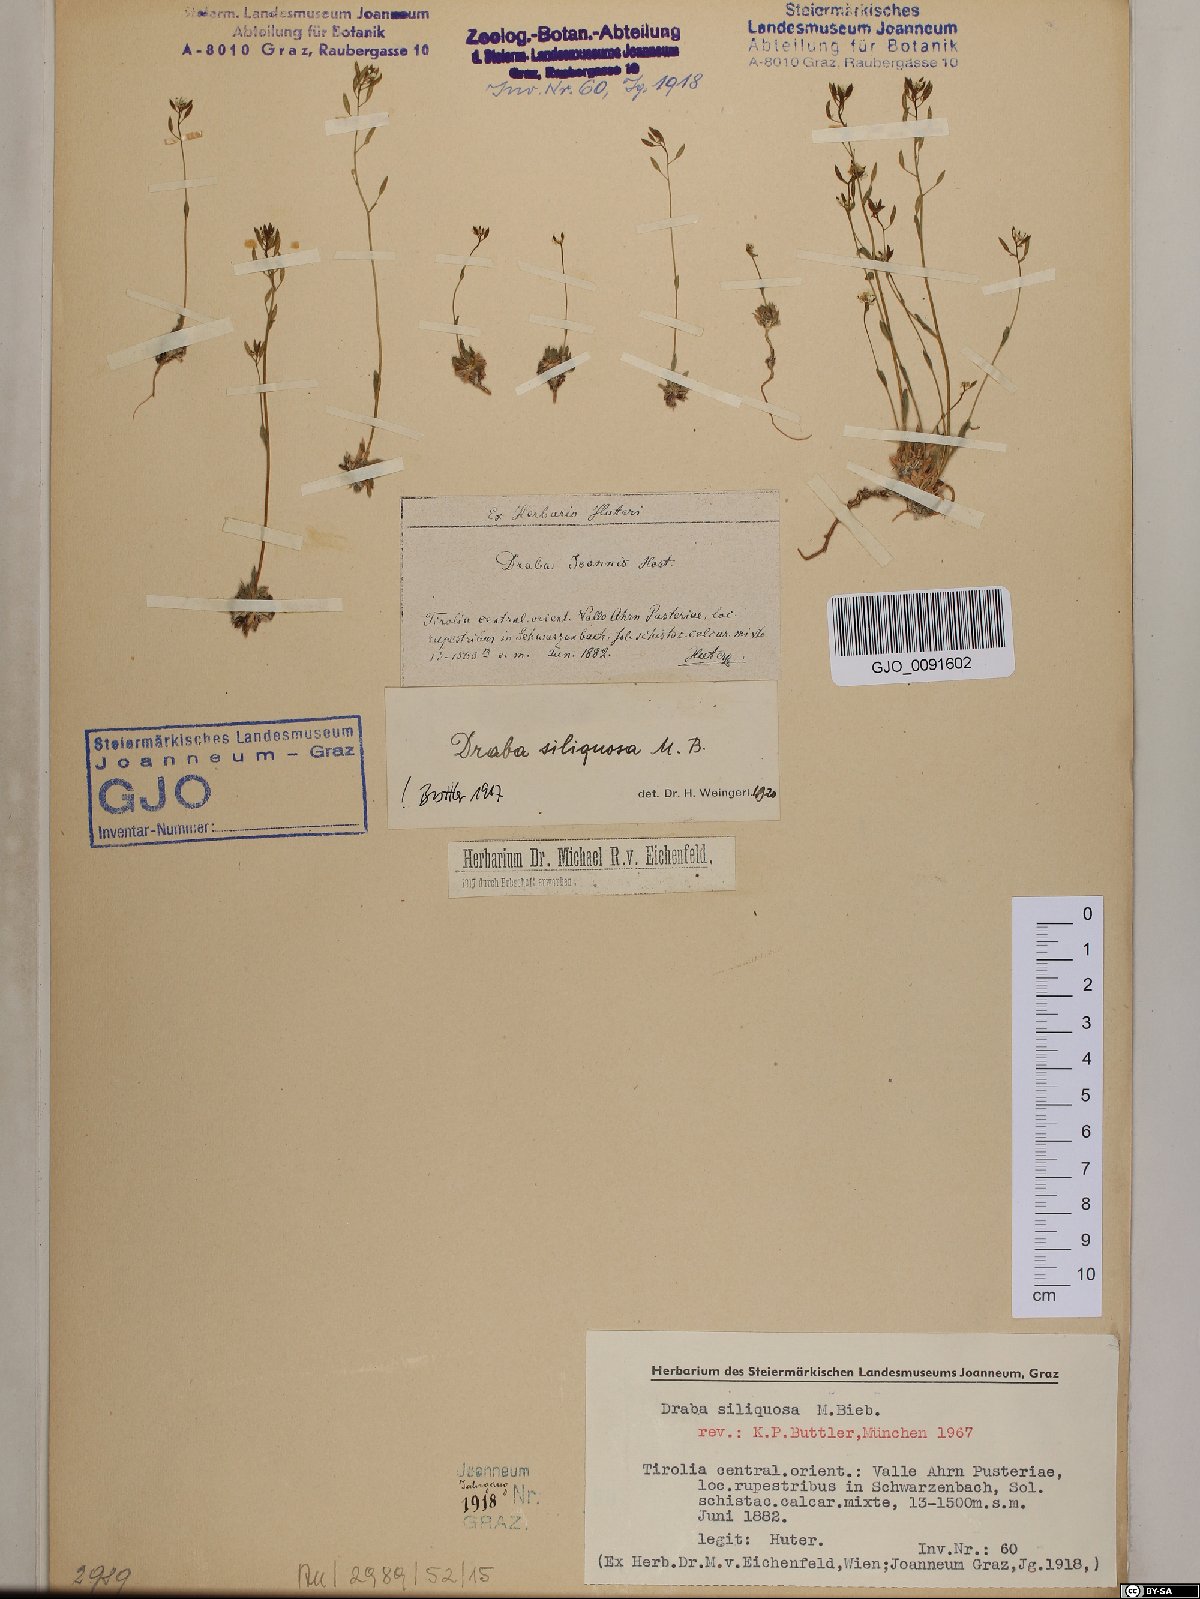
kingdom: Plantae
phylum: Tracheophyta
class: Magnoliopsida
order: Brassicales
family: Brassicaceae
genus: Draba
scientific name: Draba siliquosa
